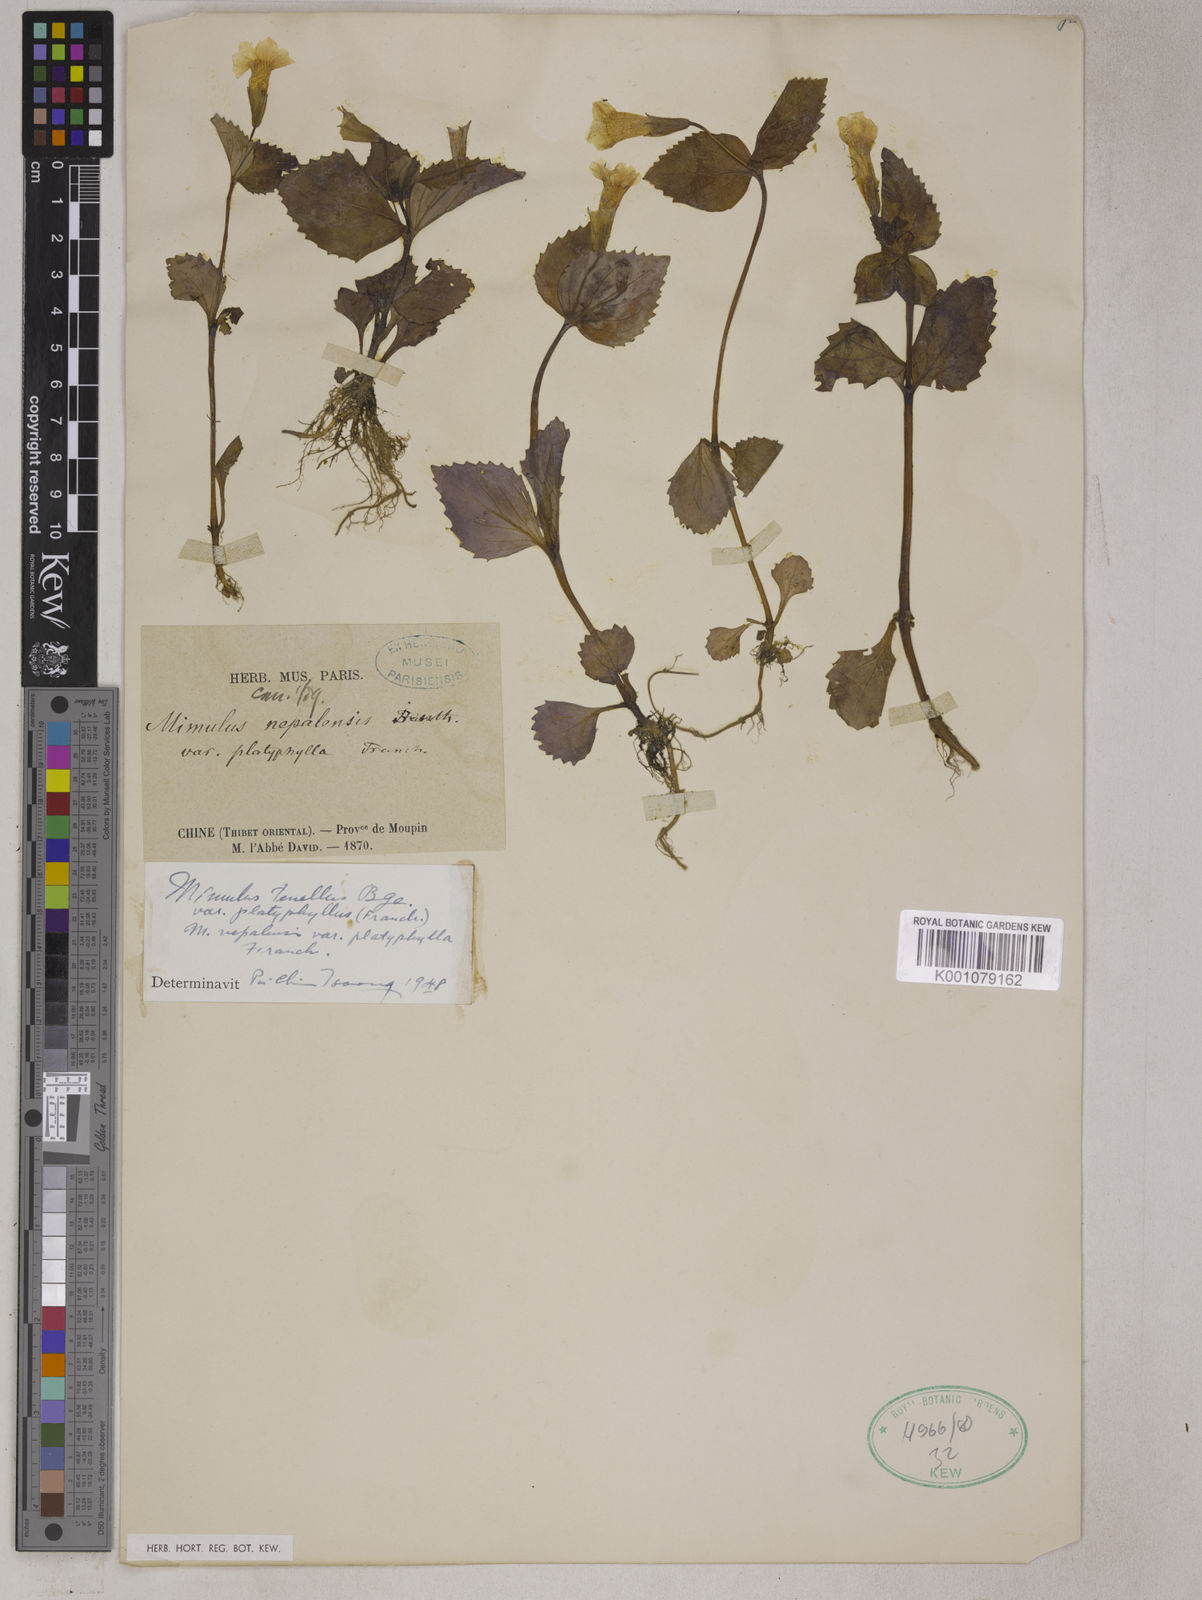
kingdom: Plantae
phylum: Tracheophyta
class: Magnoliopsida
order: Lamiales
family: Phrymaceae
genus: Erythranthe
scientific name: Erythranthe platyphylla
